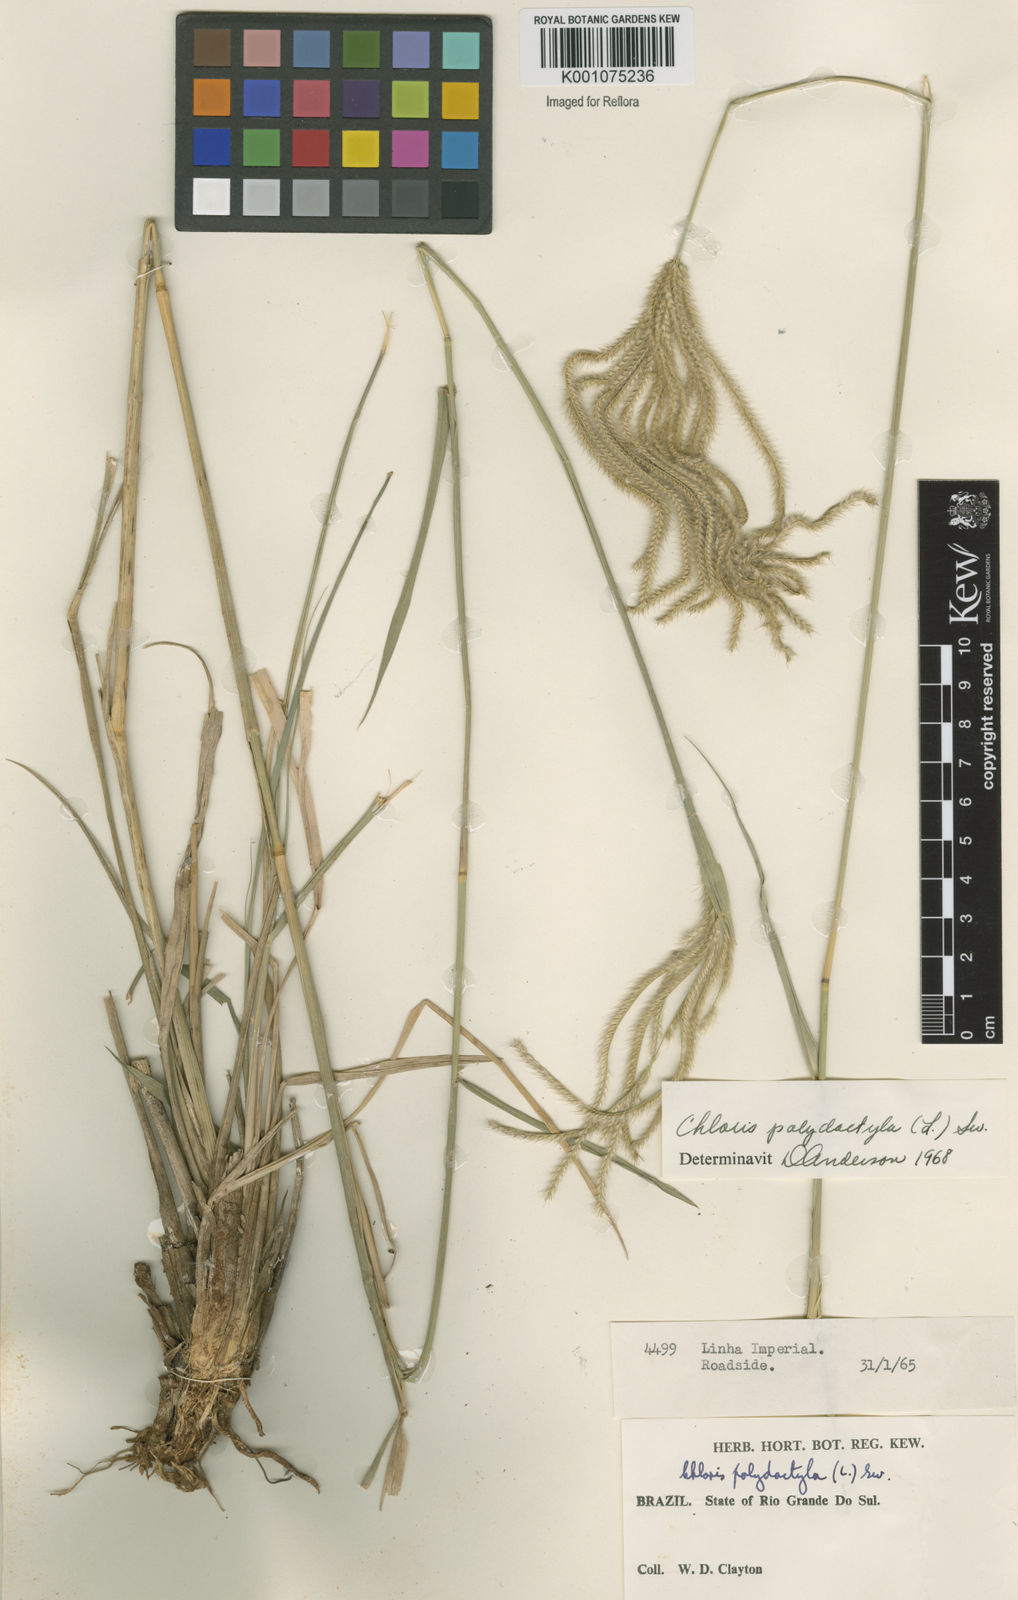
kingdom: Plantae
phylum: Tracheophyta
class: Liliopsida
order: Poales
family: Poaceae
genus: Stapfochloa
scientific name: Stapfochloa elata
